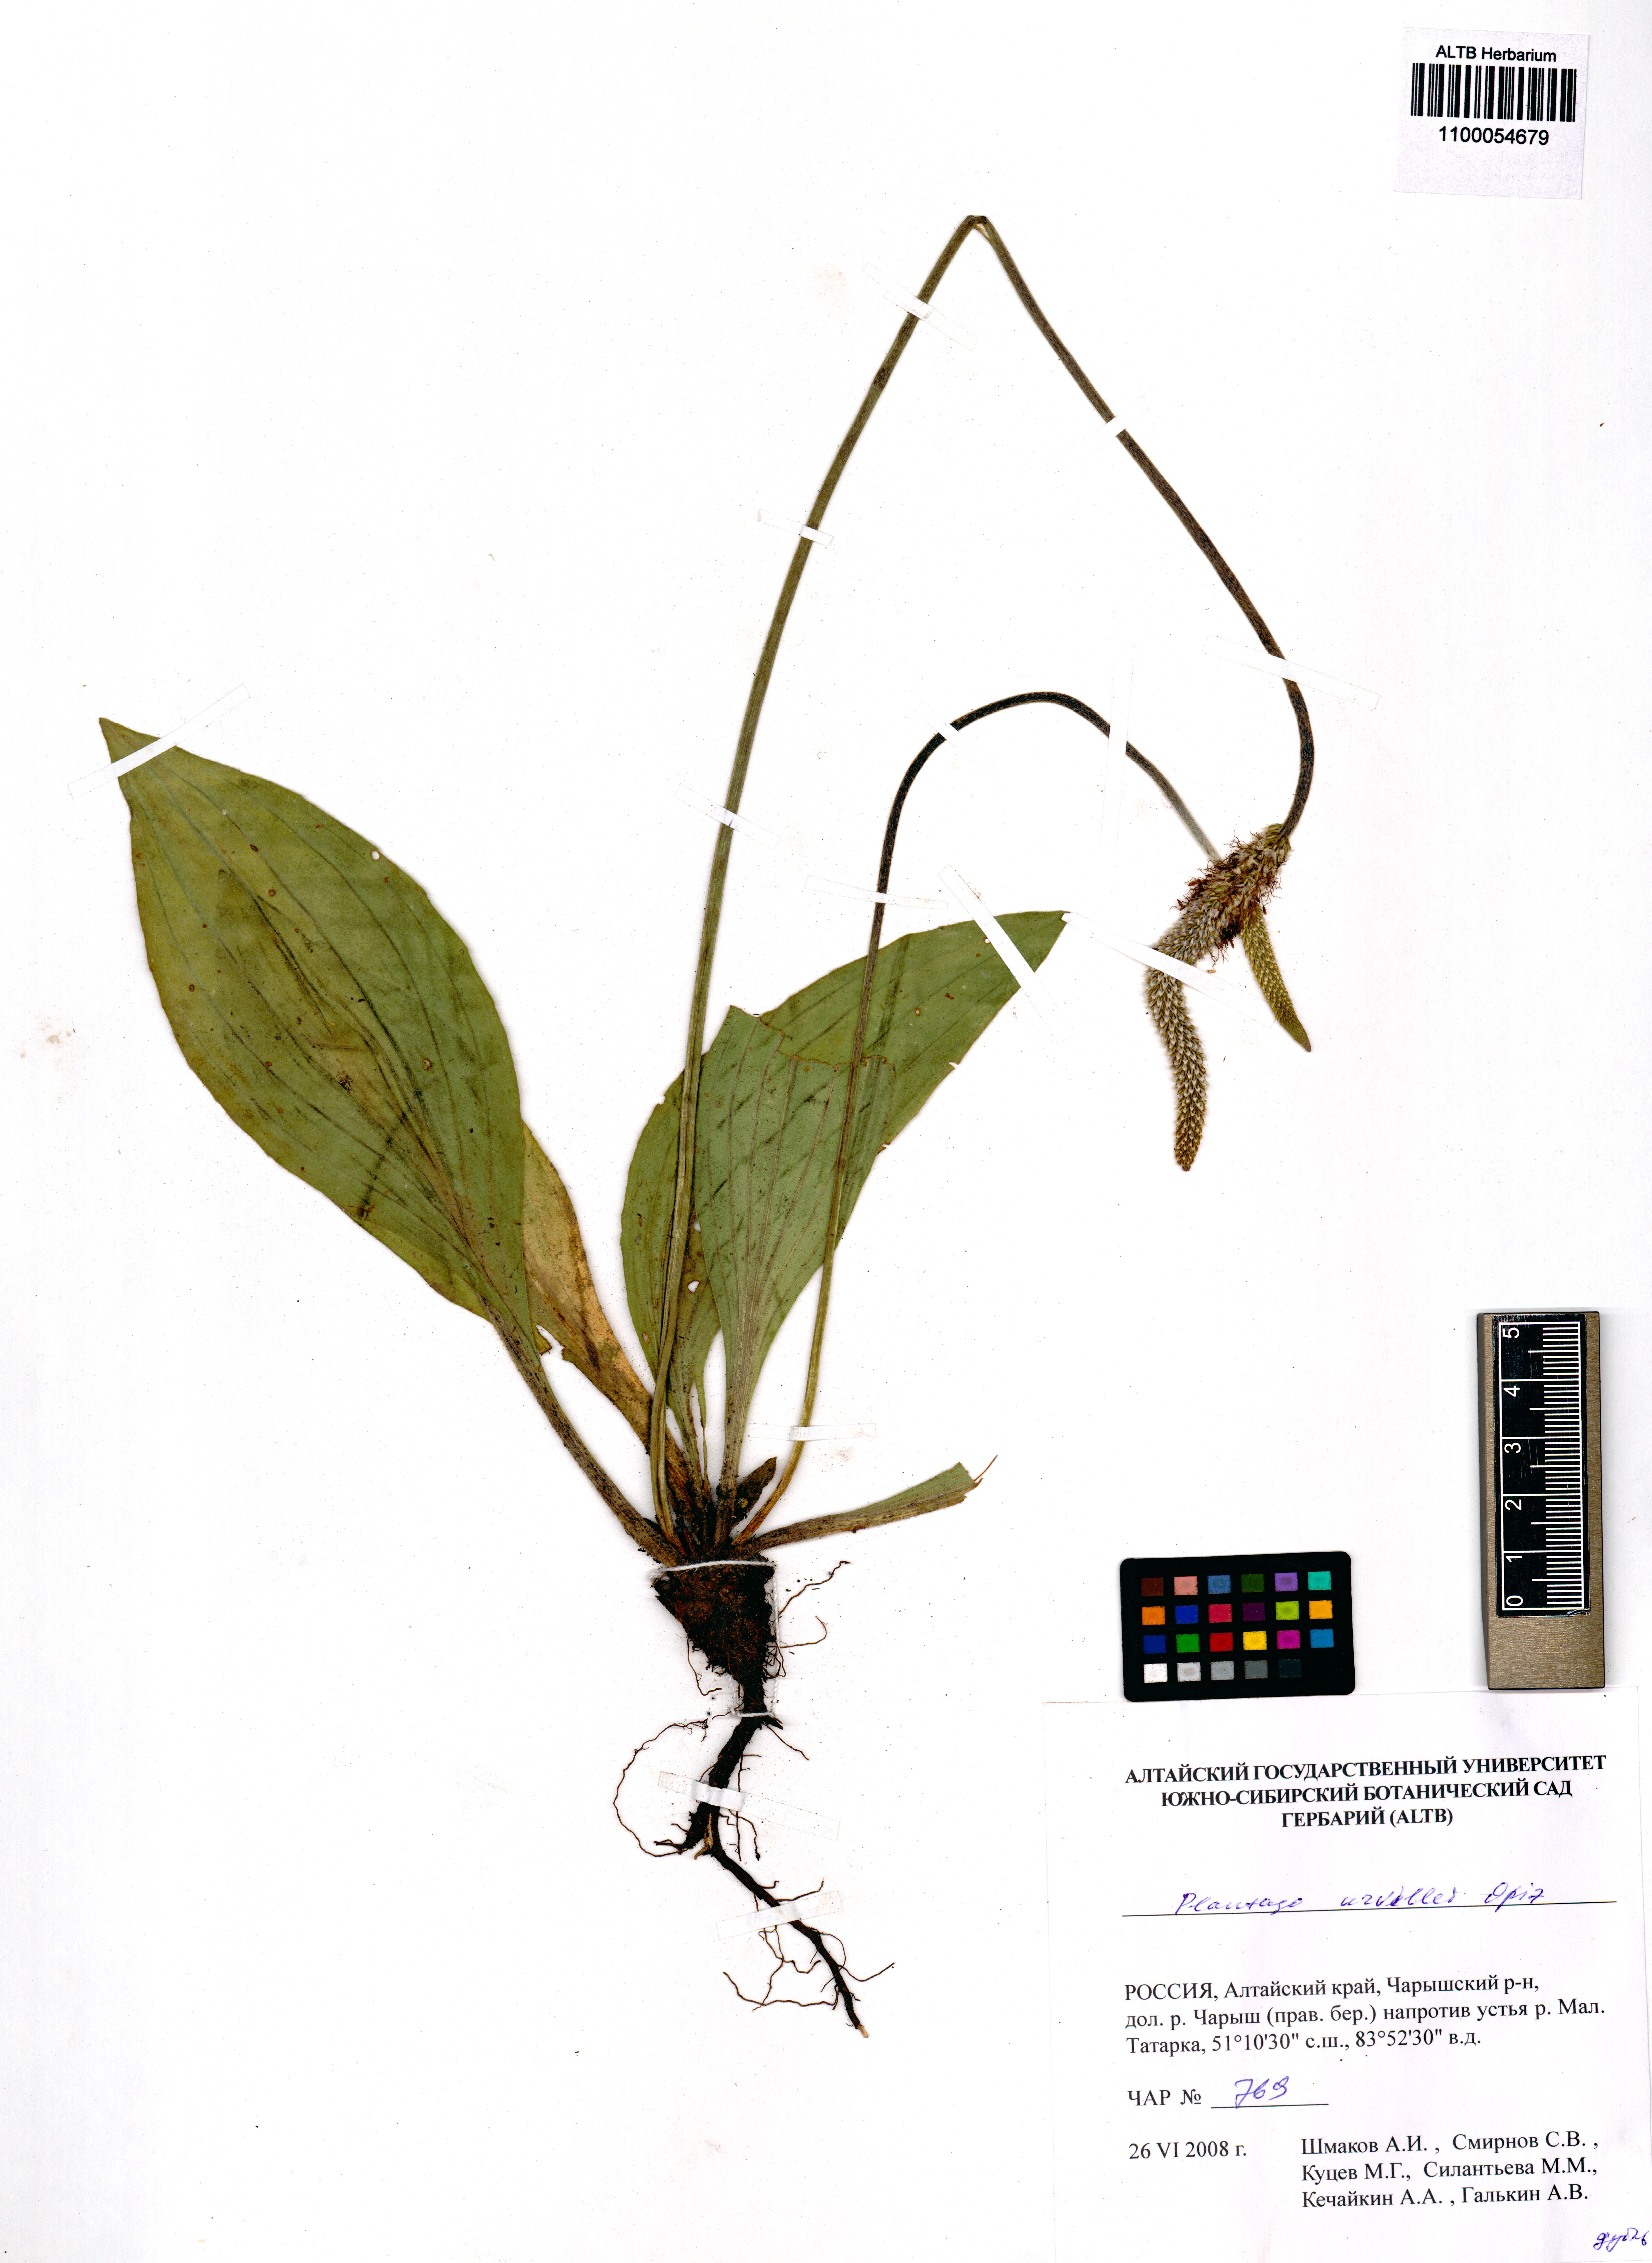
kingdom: Plantae
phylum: Tracheophyta
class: Magnoliopsida
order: Lamiales
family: Plantaginaceae
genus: Plantago
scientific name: Plantago urvillei
